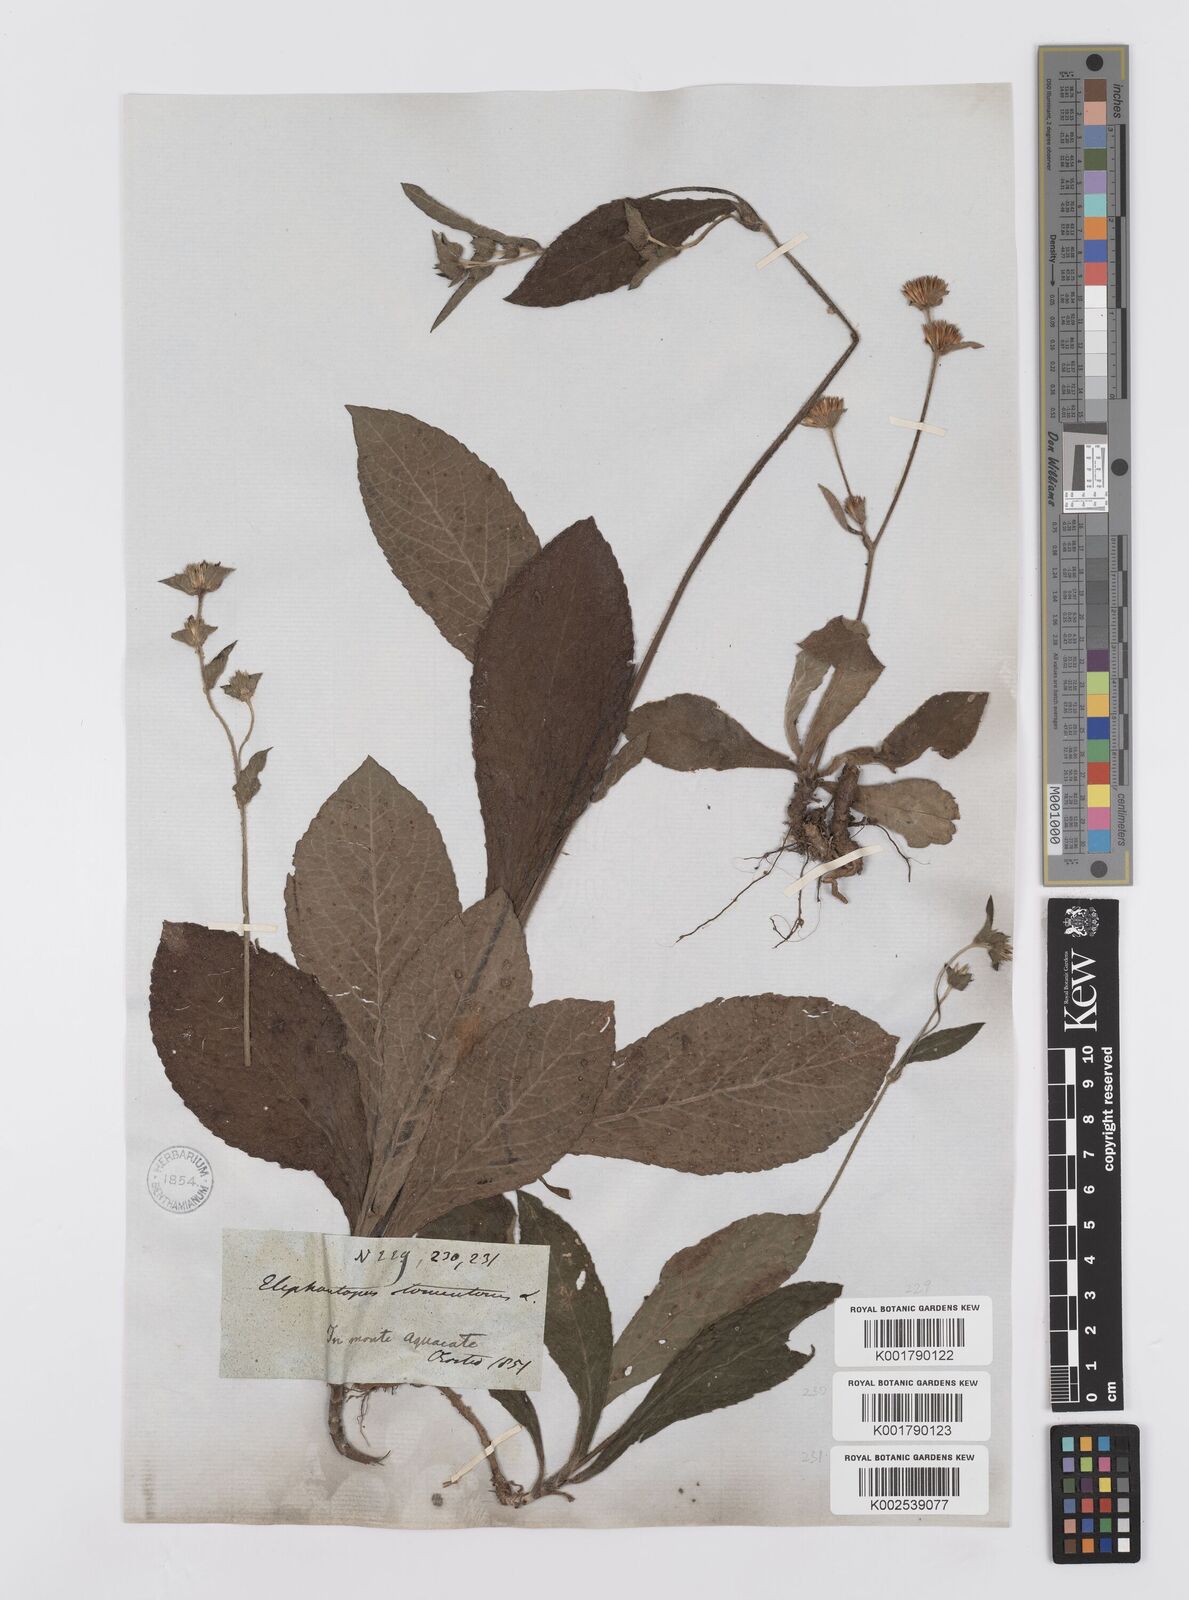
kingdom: Plantae
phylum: Tracheophyta
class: Magnoliopsida
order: Asterales
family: Asteraceae
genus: Elephantopus
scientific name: Elephantopus tomentosus
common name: Tobacco-weed
